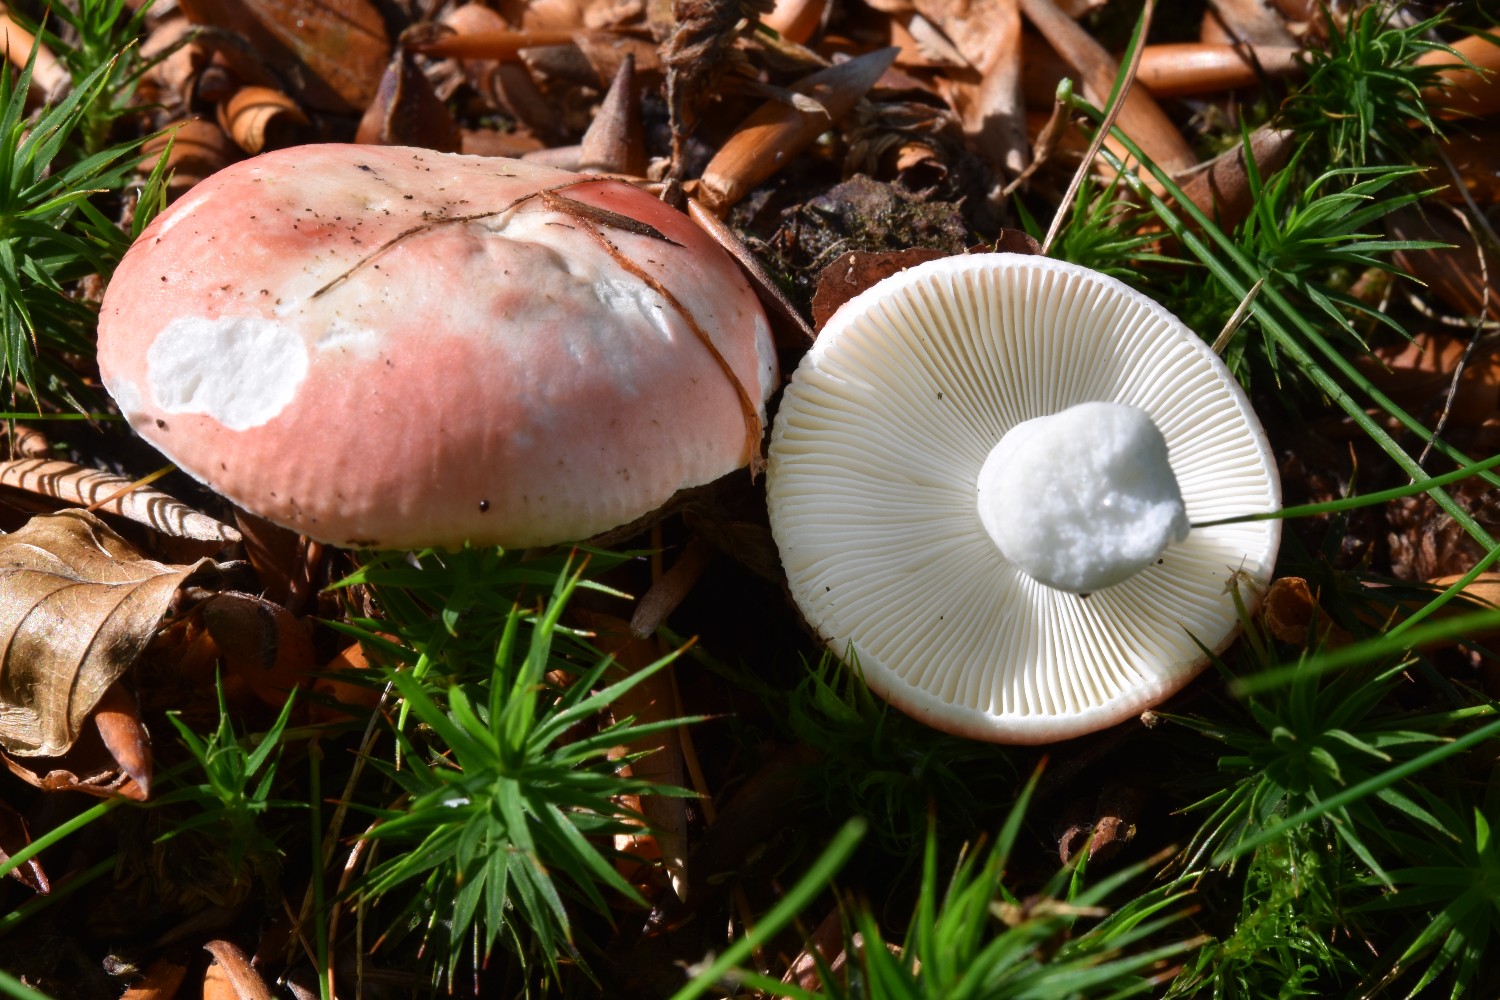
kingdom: Fungi
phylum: Basidiomycota
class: Agaricomycetes
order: Russulales
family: Russulaceae
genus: Russula
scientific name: Russula nobilis
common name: lille gift-skørhat
